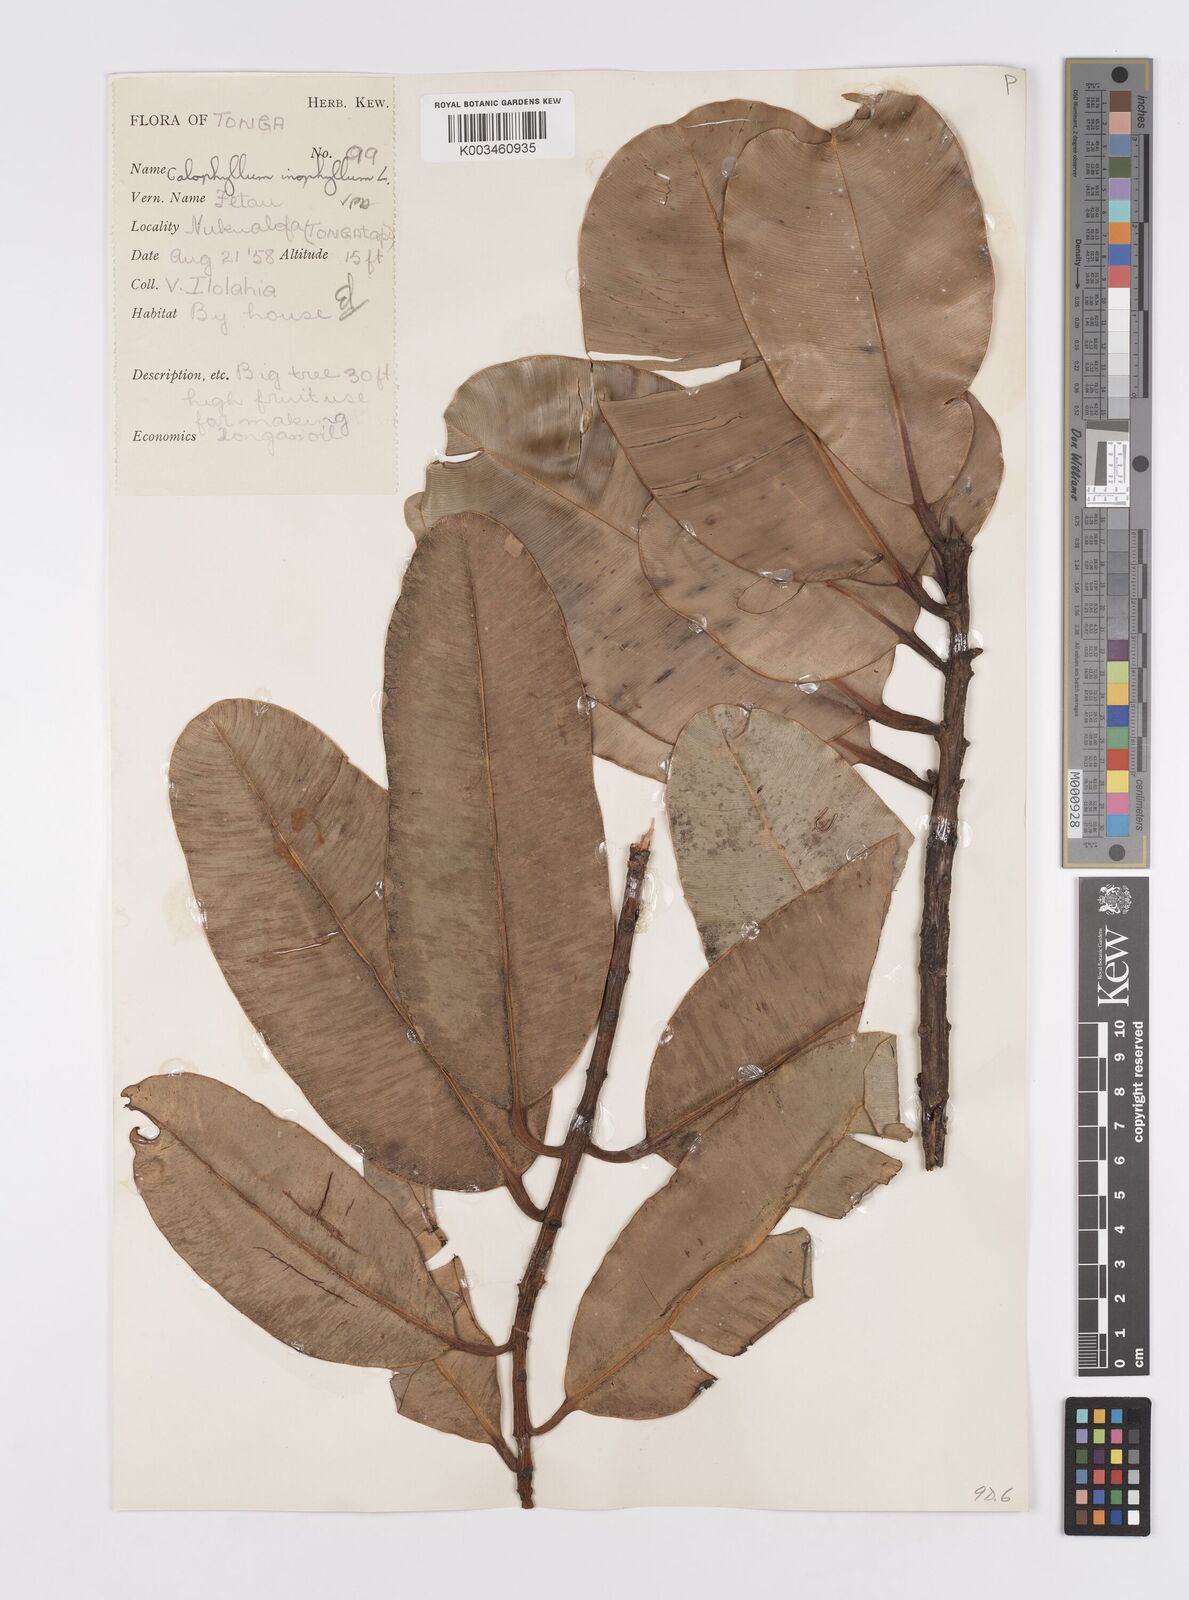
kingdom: Plantae
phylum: Tracheophyta
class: Magnoliopsida
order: Malpighiales
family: Calophyllaceae
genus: Calophyllum
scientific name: Calophyllum inophyllum
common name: Alexandrian laurel
